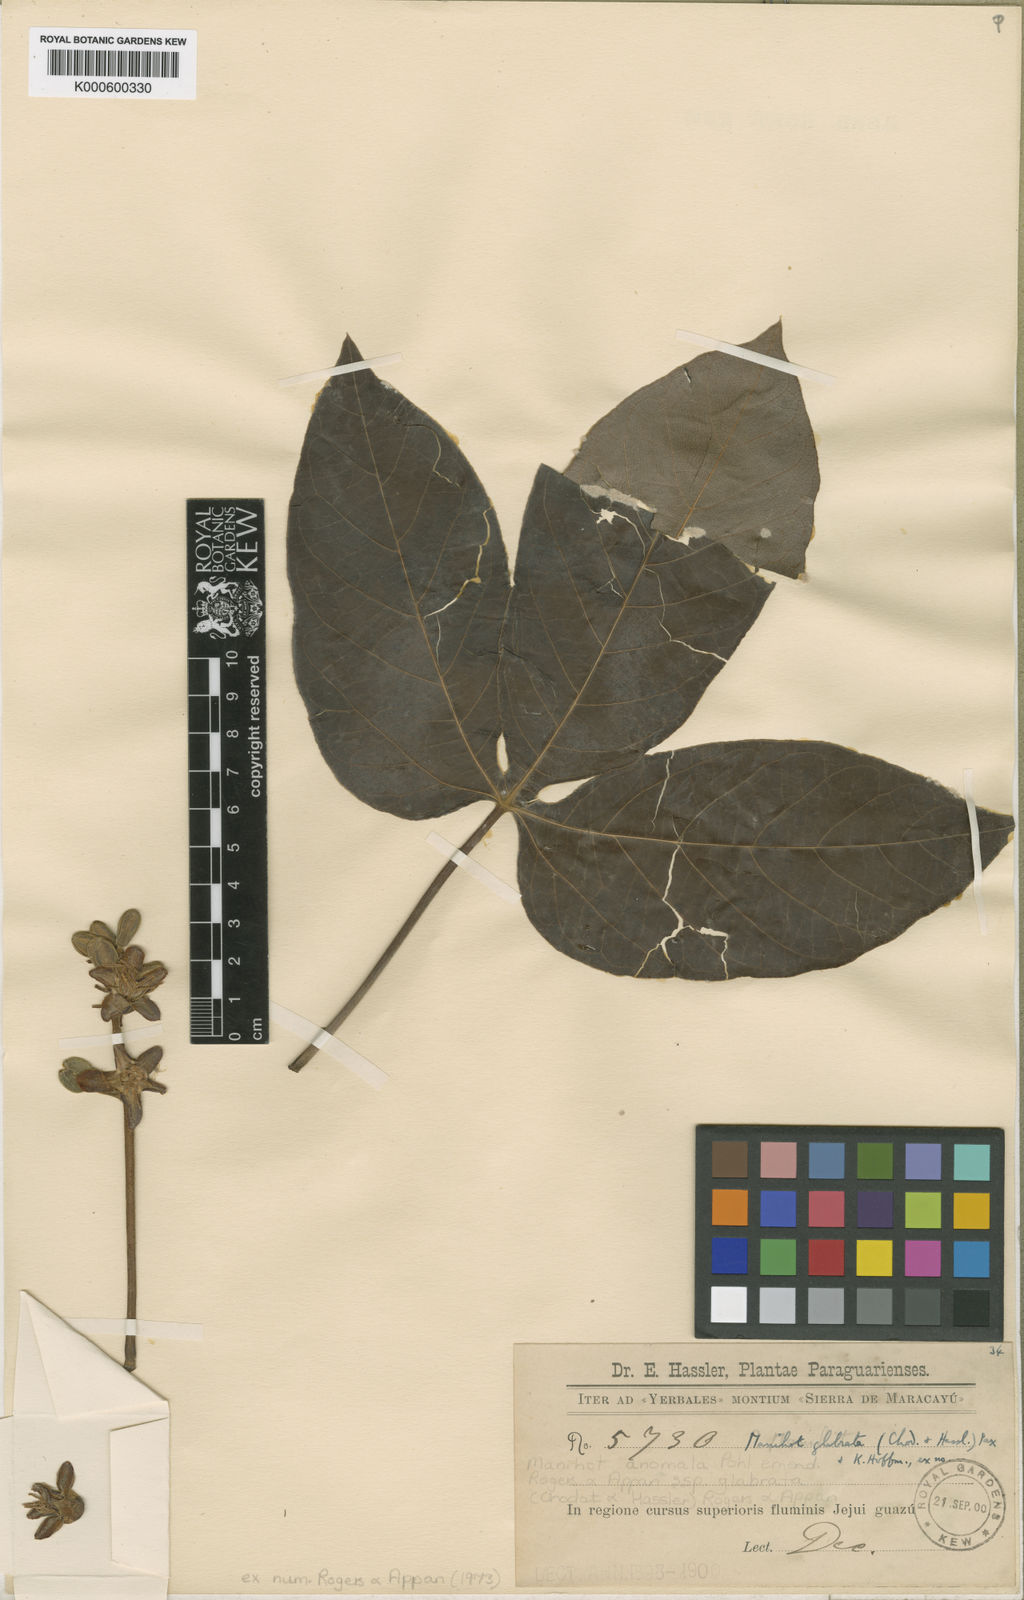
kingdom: Plantae
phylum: Tracheophyta
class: Magnoliopsida
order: Malpighiales
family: Euphorbiaceae
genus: Manihot
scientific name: Manihot anomala
